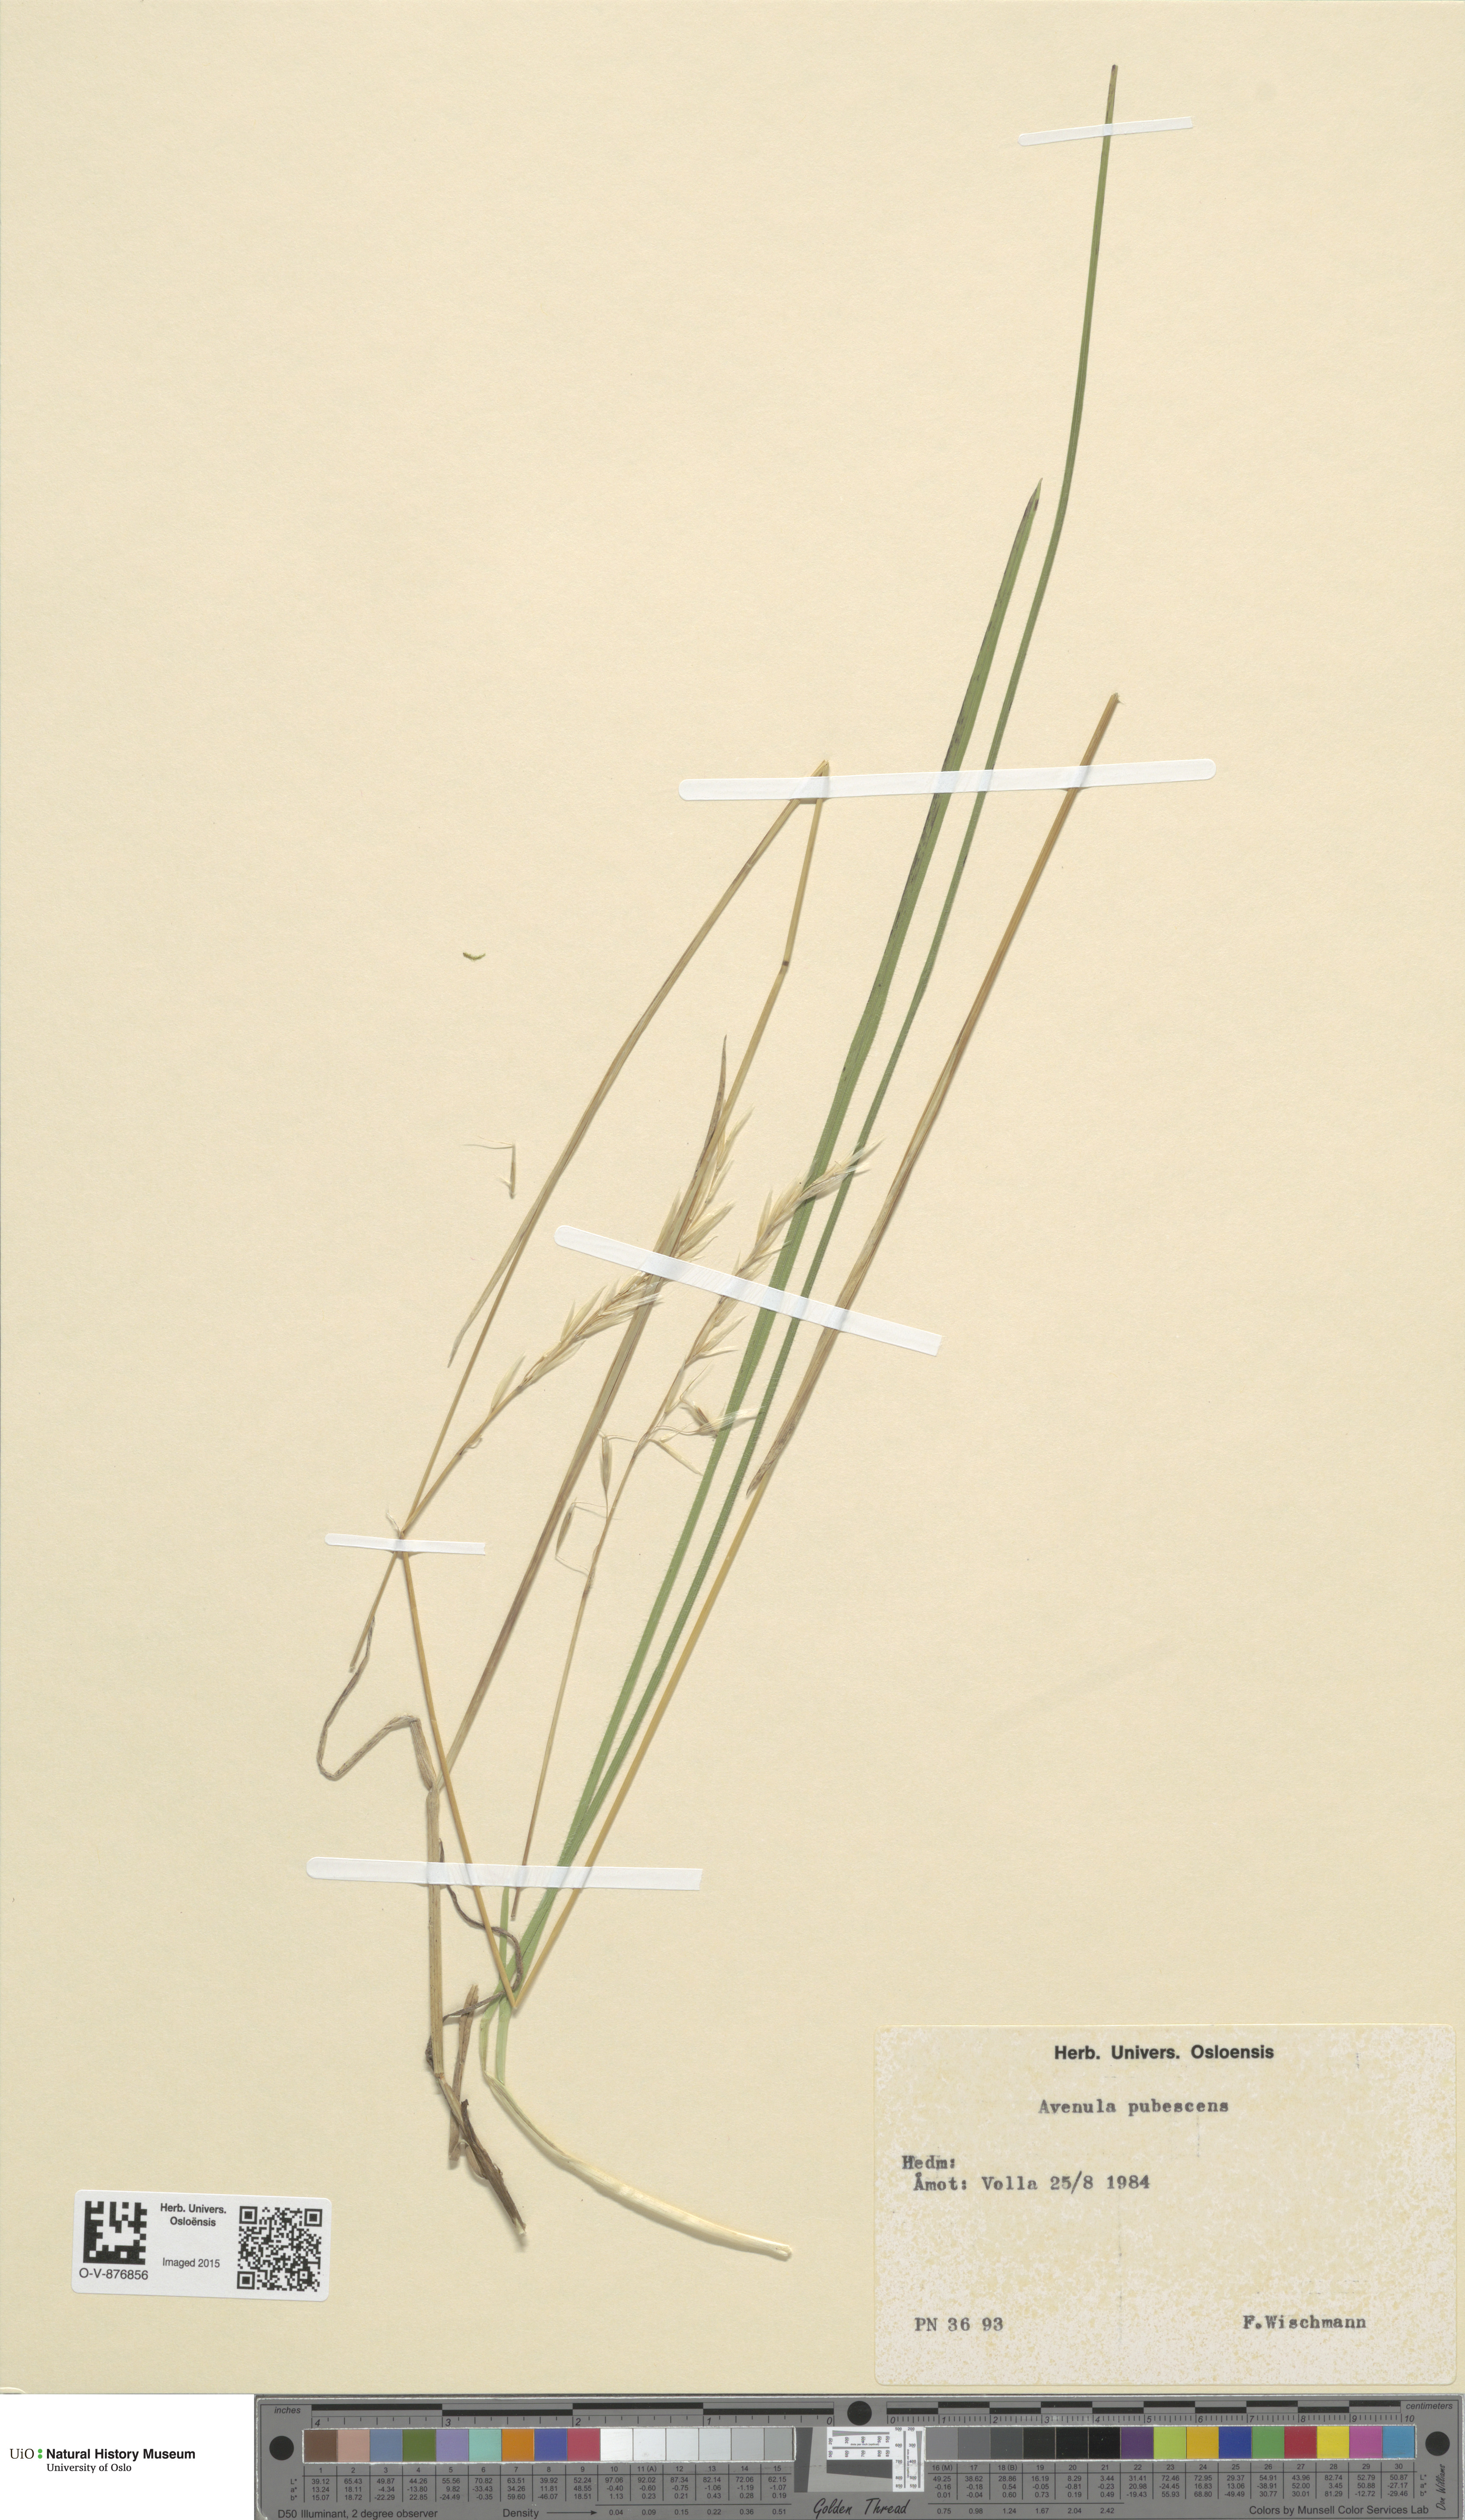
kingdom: Plantae
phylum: Tracheophyta
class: Liliopsida
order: Poales
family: Poaceae
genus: Avenula
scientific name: Avenula pubescens
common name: Downy alpine oatgrass
